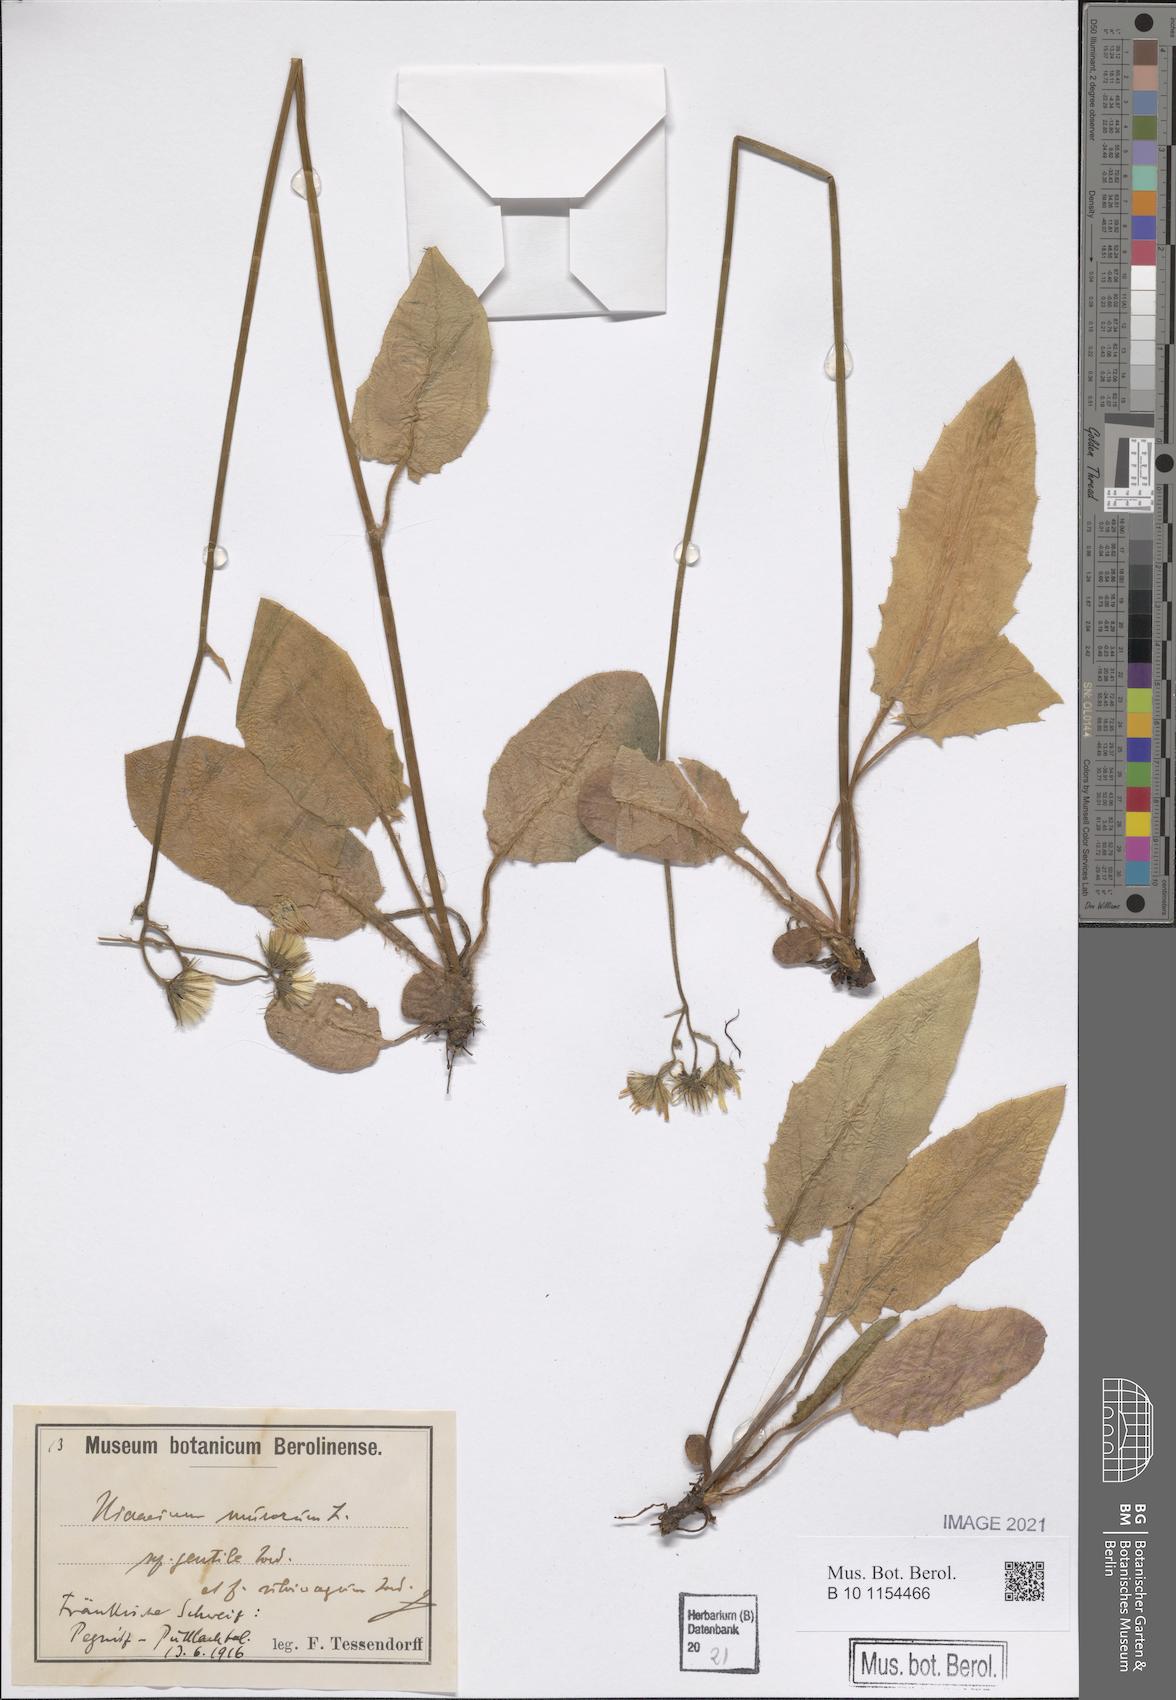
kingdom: Plantae
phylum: Tracheophyta
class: Magnoliopsida
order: Asterales
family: Asteraceae
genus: Hieracium
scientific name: Hieracium murorum
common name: Wall hawkweed
